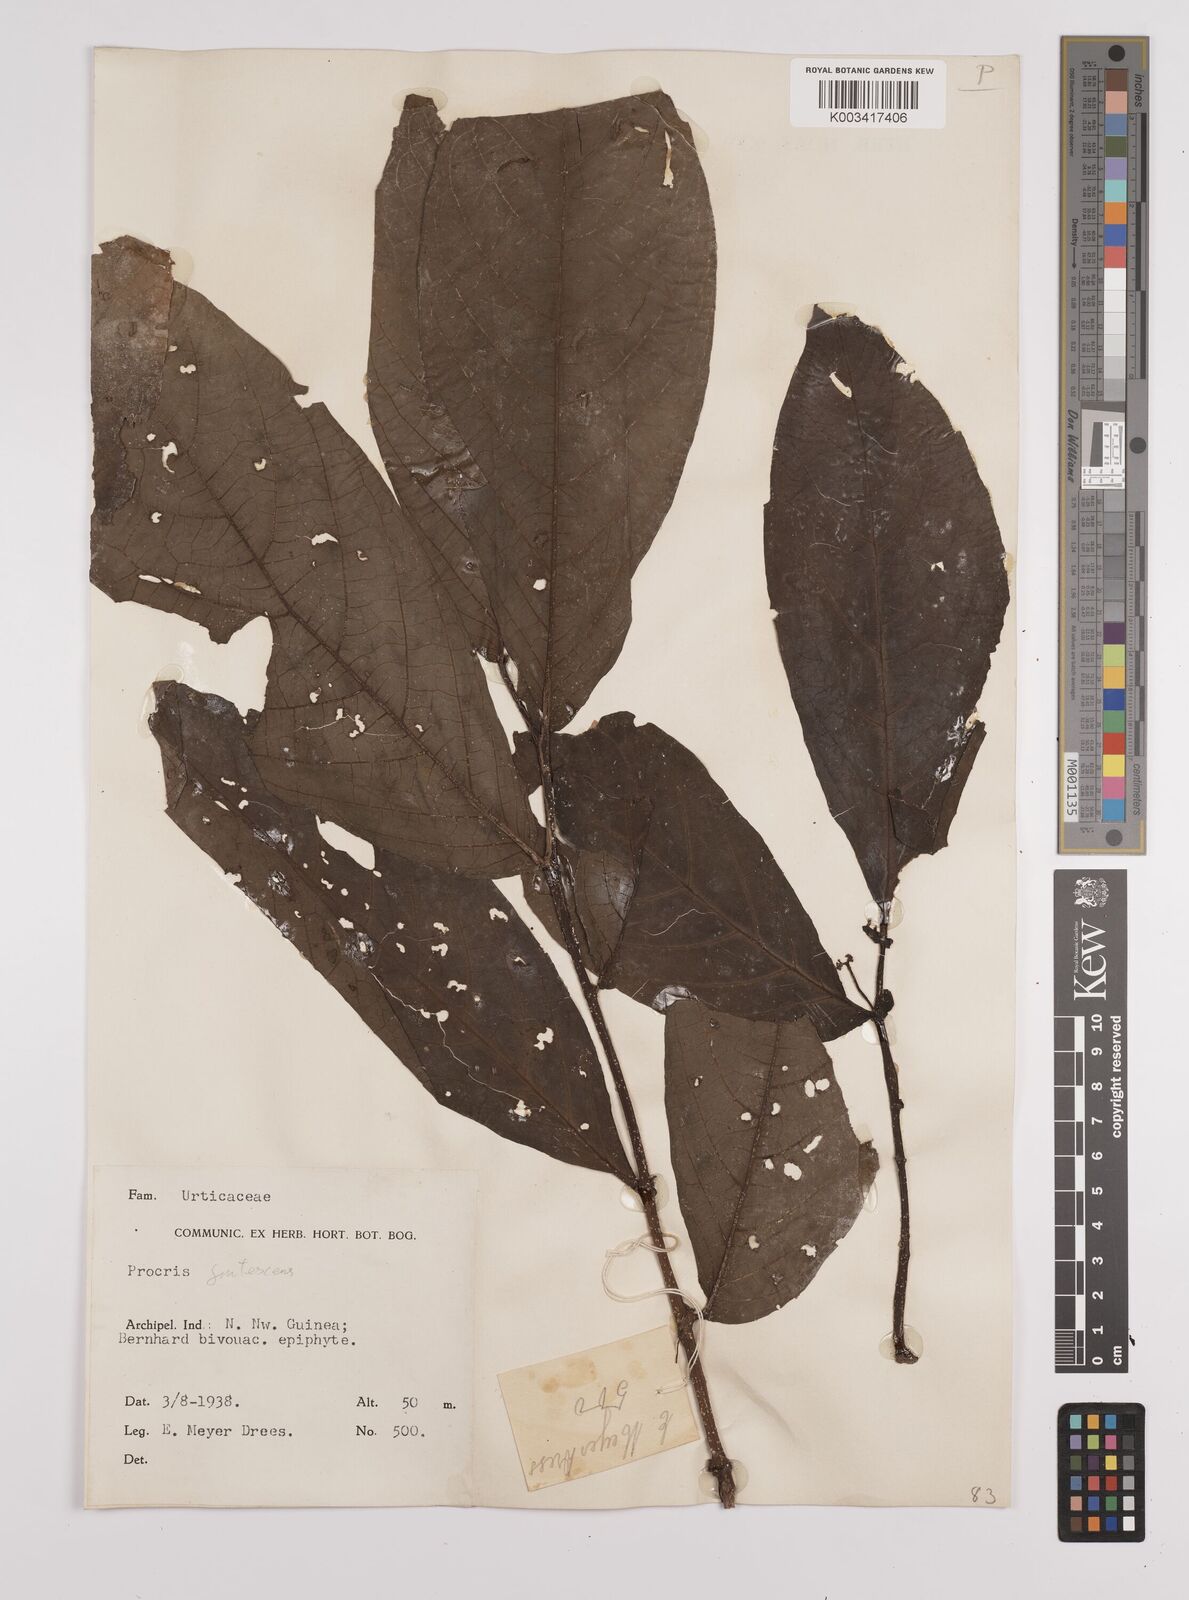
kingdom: Plantae
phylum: Tracheophyta
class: Magnoliopsida
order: Rosales
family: Urticaceae
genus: Procris
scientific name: Procris frutescens
